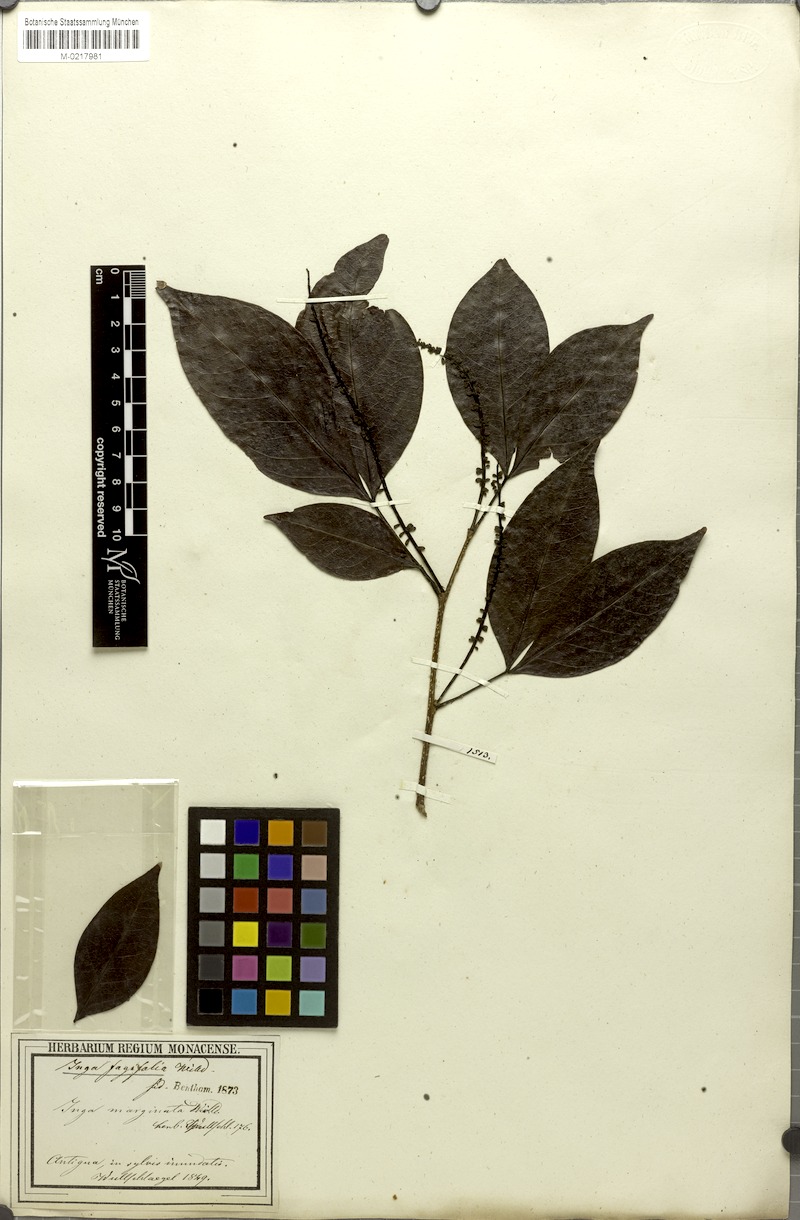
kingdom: Plantae
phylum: Tracheophyta
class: Magnoliopsida
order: Fabales
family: Fabaceae
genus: Inga
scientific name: Inga laurina
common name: Red wood
